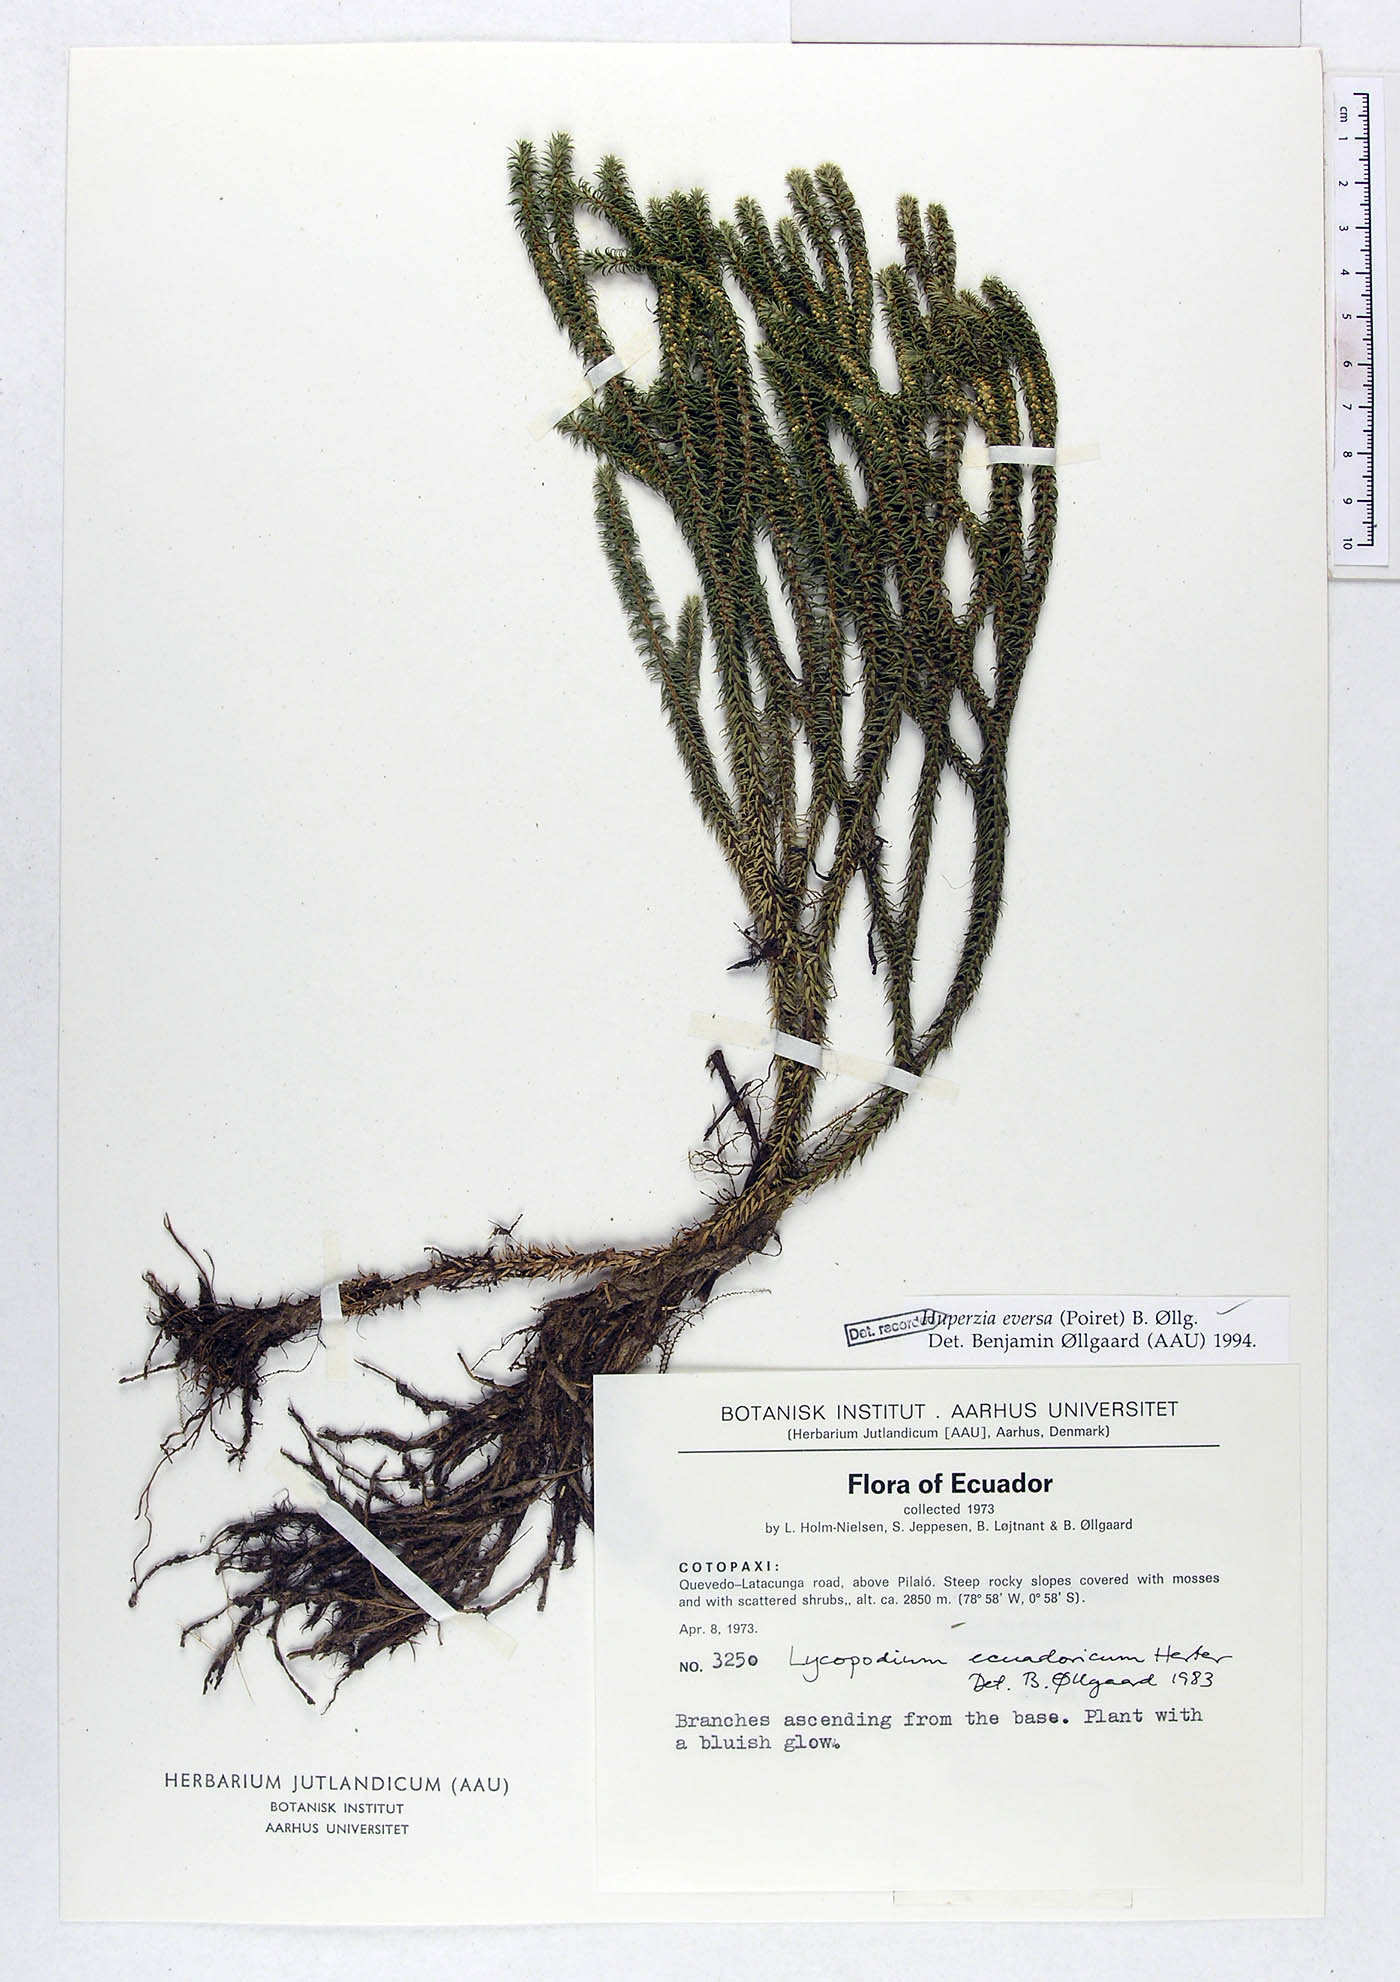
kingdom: Plantae
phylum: Tracheophyta
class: Lycopodiopsida
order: Lycopodiales
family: Lycopodiaceae
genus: Phlegmariurus
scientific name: Phlegmariurus eversus
